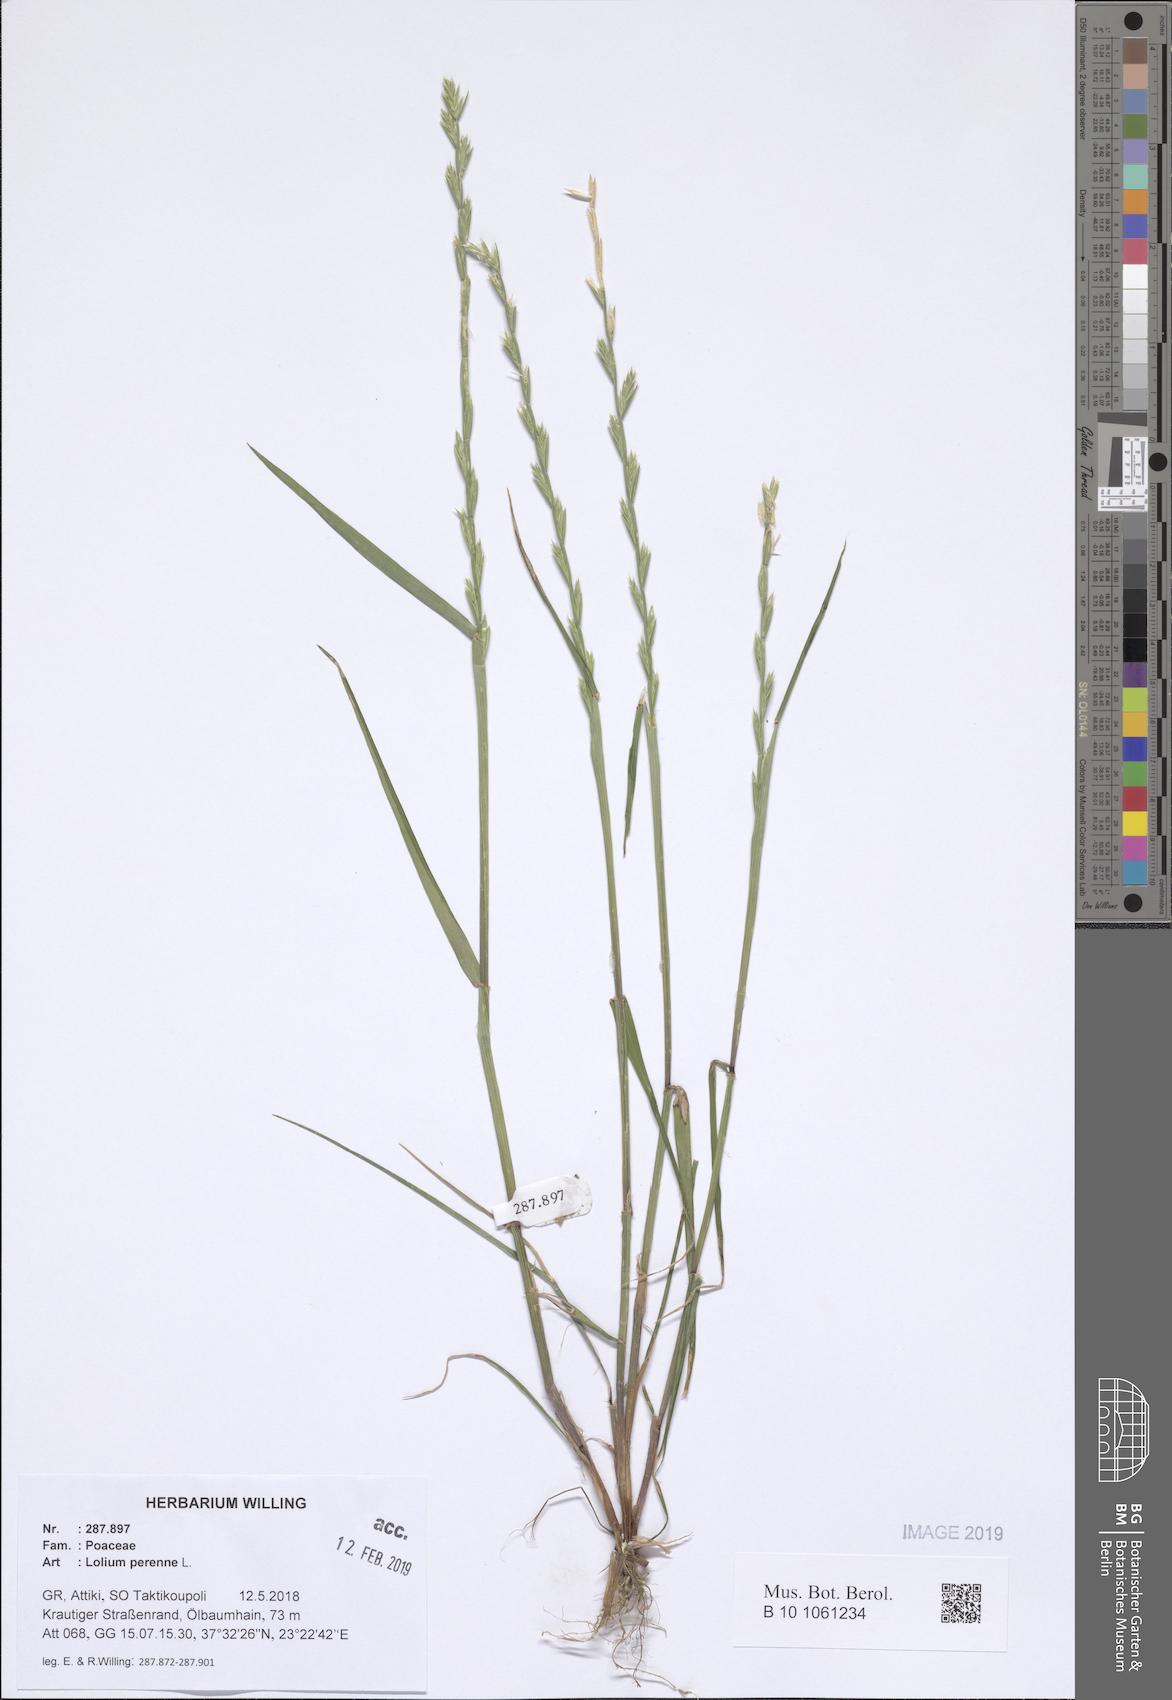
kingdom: Plantae
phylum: Tracheophyta
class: Liliopsida
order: Poales
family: Poaceae
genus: Lolium
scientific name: Lolium perenne
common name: Perennial ryegrass
